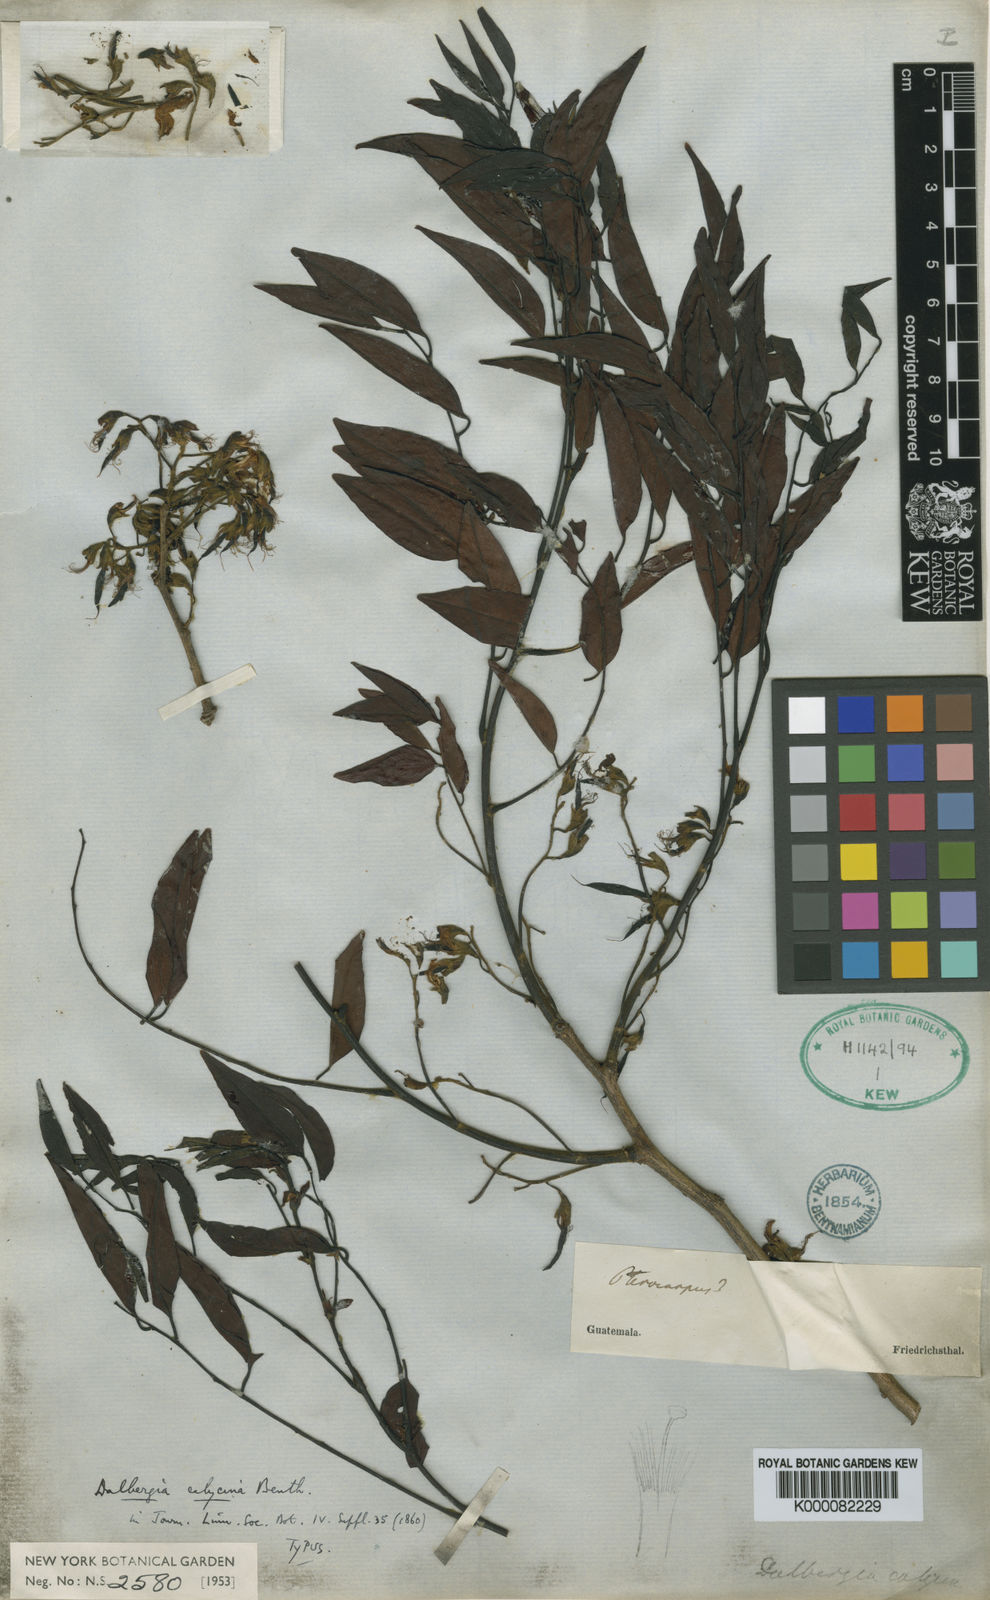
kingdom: Plantae
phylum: Tracheophyta
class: Magnoliopsida
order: Fabales
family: Fabaceae
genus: Dalbergia
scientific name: Dalbergia calycina
